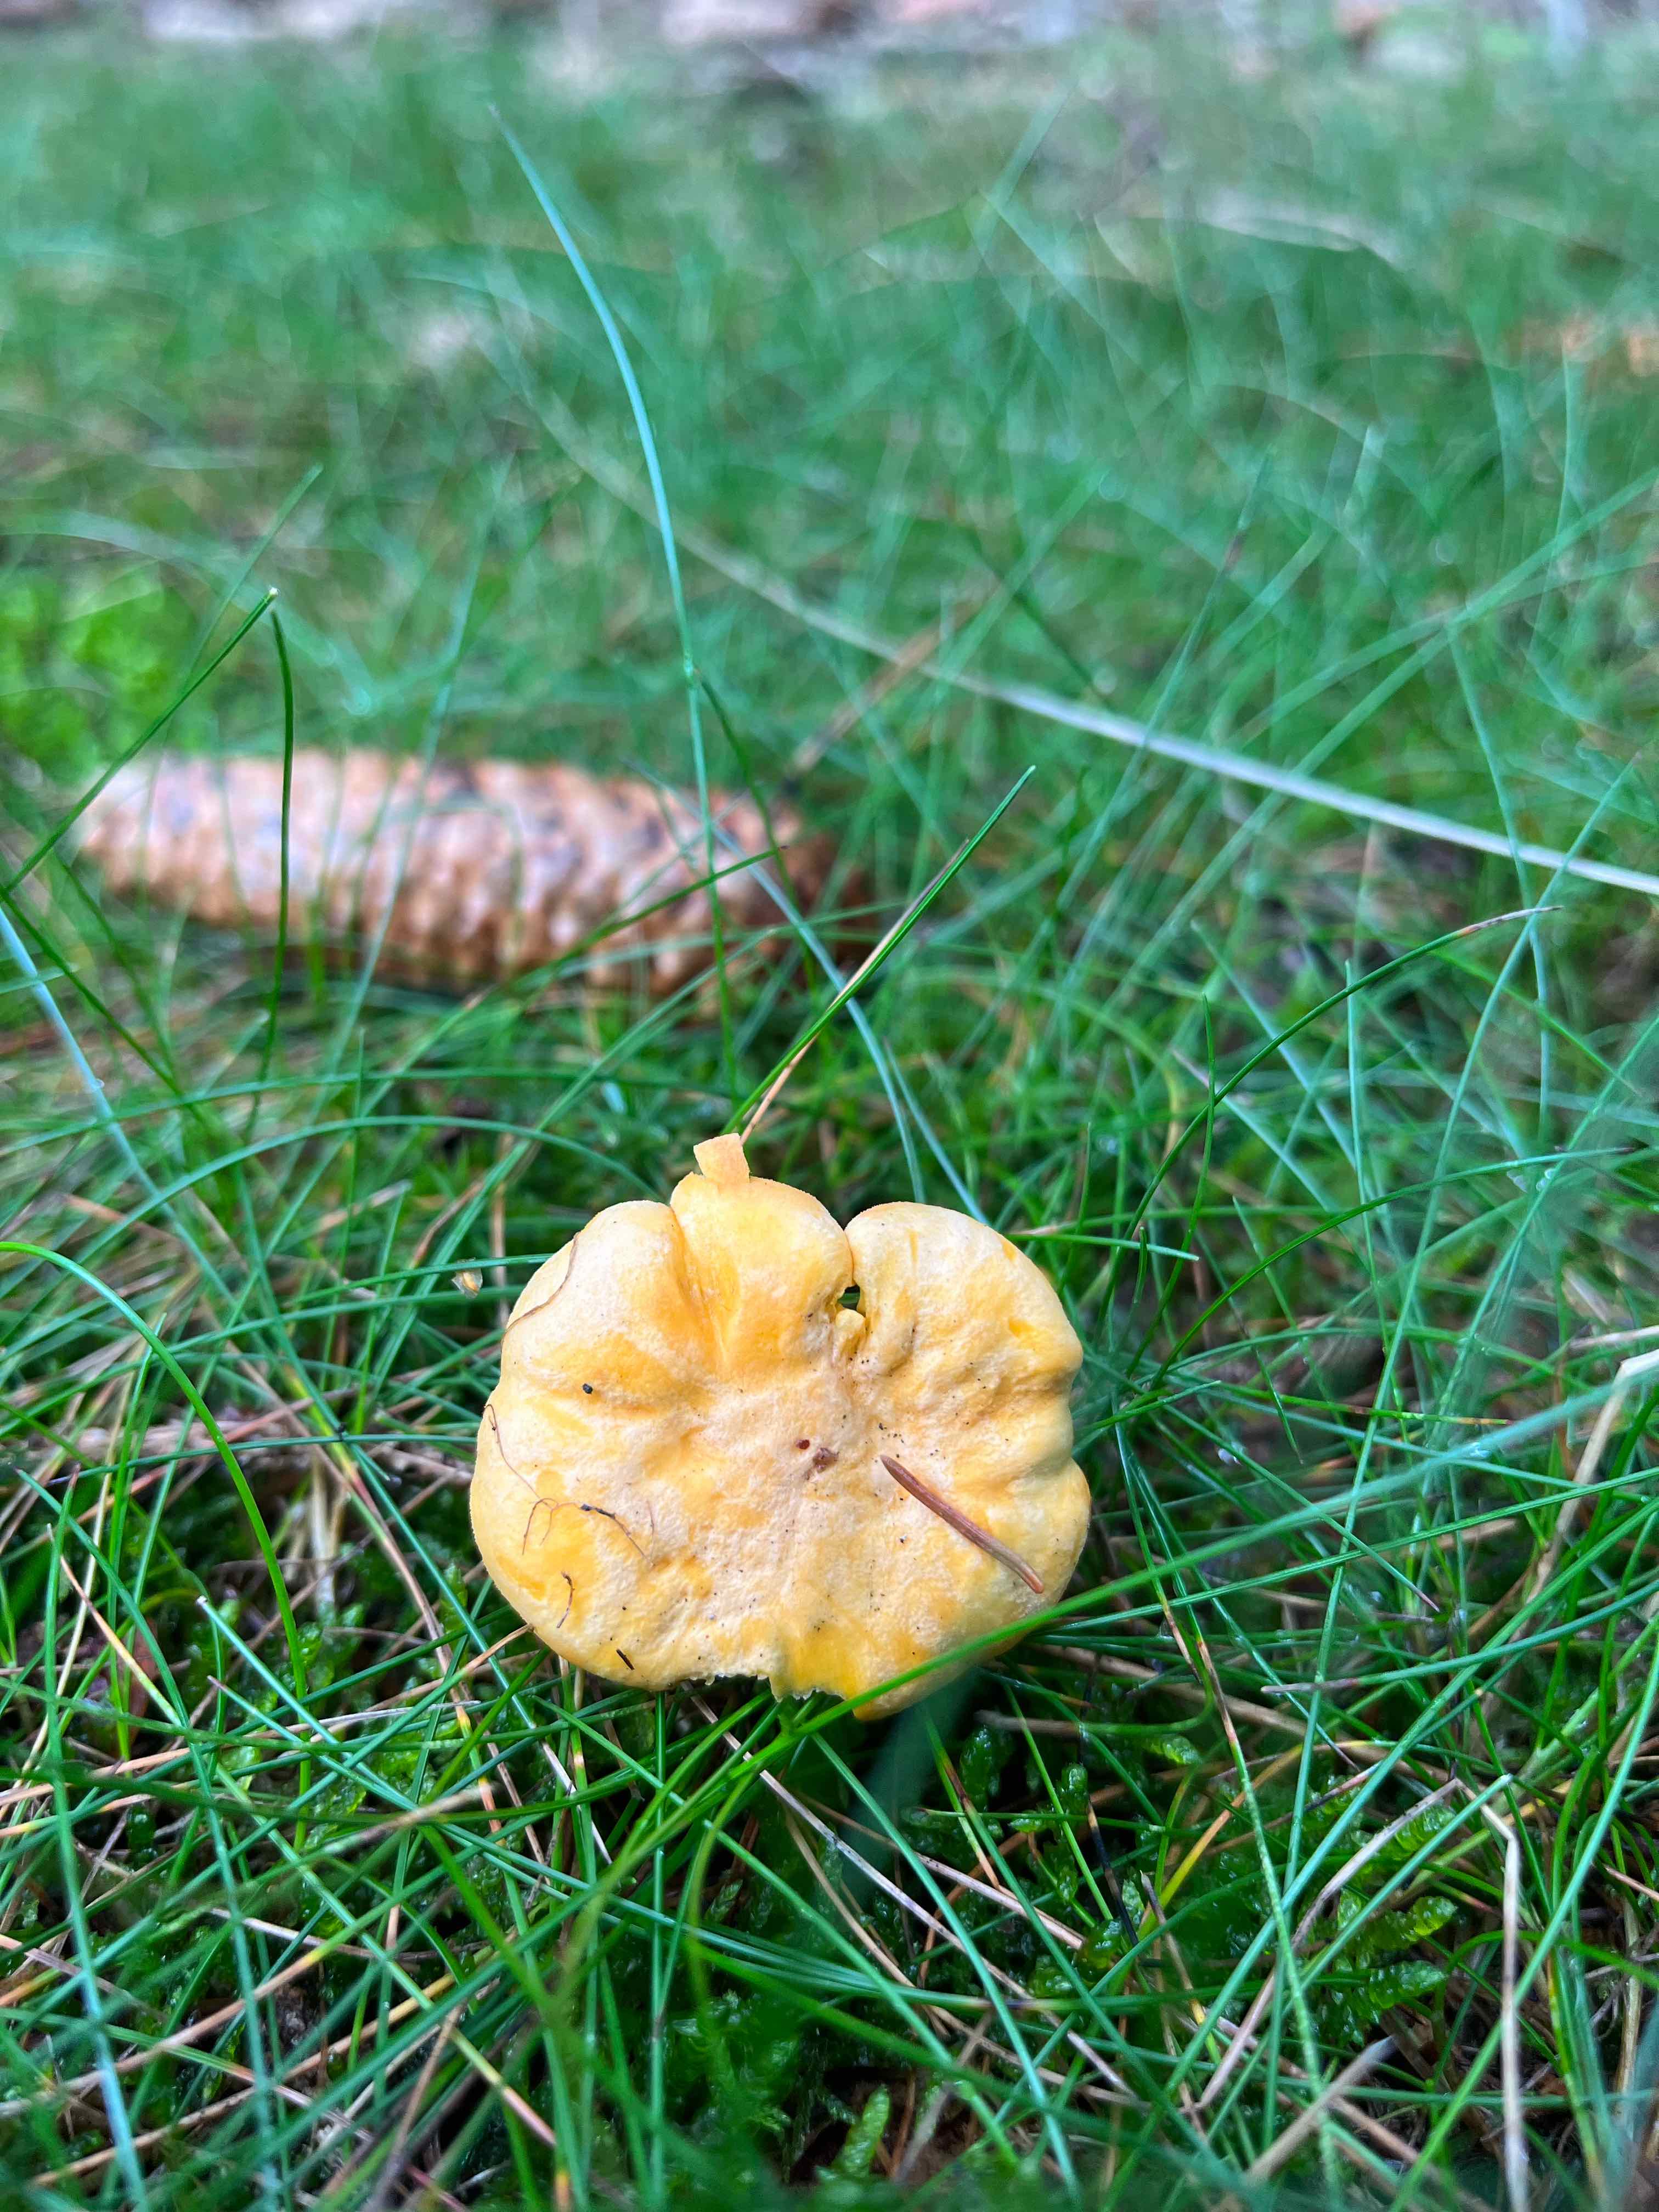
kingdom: Fungi
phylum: Basidiomycota
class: Agaricomycetes
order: Cantharellales
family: Hydnaceae
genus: Cantharellus
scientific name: Cantharellus cibarius
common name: almindelig kantarel
